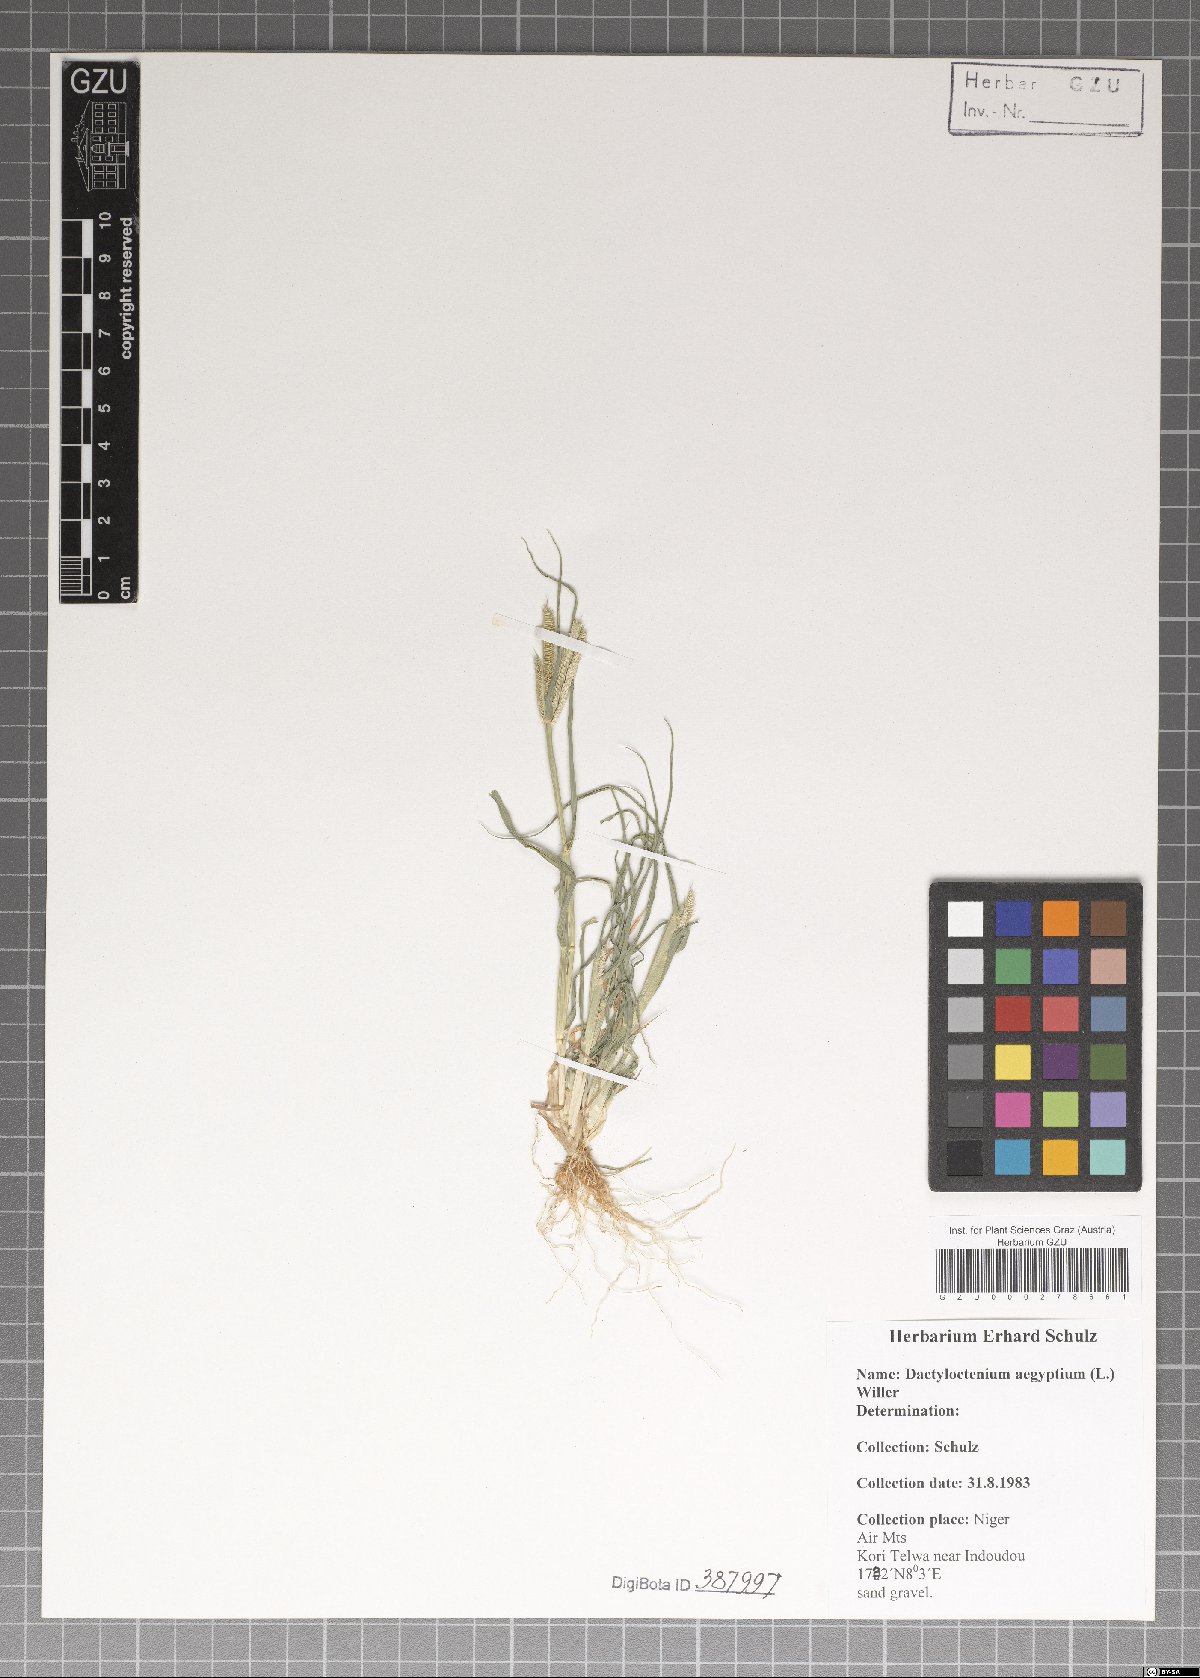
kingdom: Plantae
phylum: Tracheophyta
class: Liliopsida
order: Poales
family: Poaceae
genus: Dactyloctenium
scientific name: Dactyloctenium aegyptium
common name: Egyptian grass
